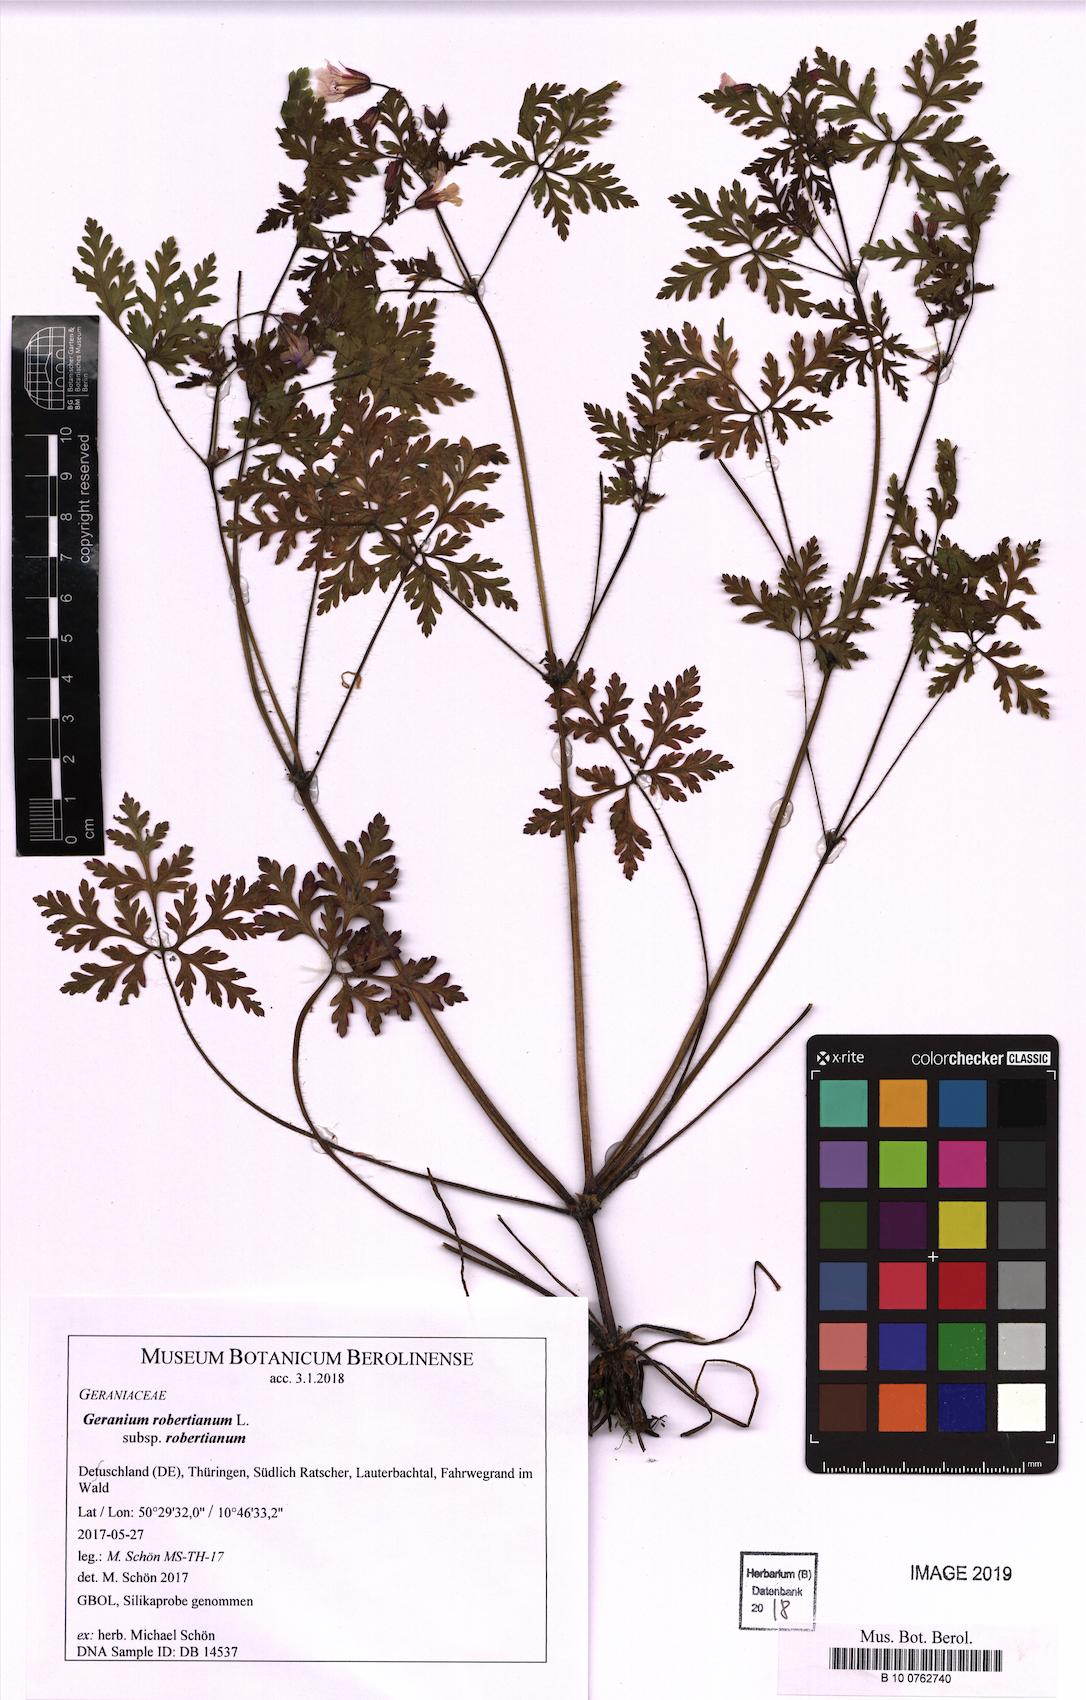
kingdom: Plantae
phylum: Tracheophyta
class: Magnoliopsida
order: Geraniales
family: Geraniaceae
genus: Geranium
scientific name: Geranium robertianum
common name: Herb-robert
